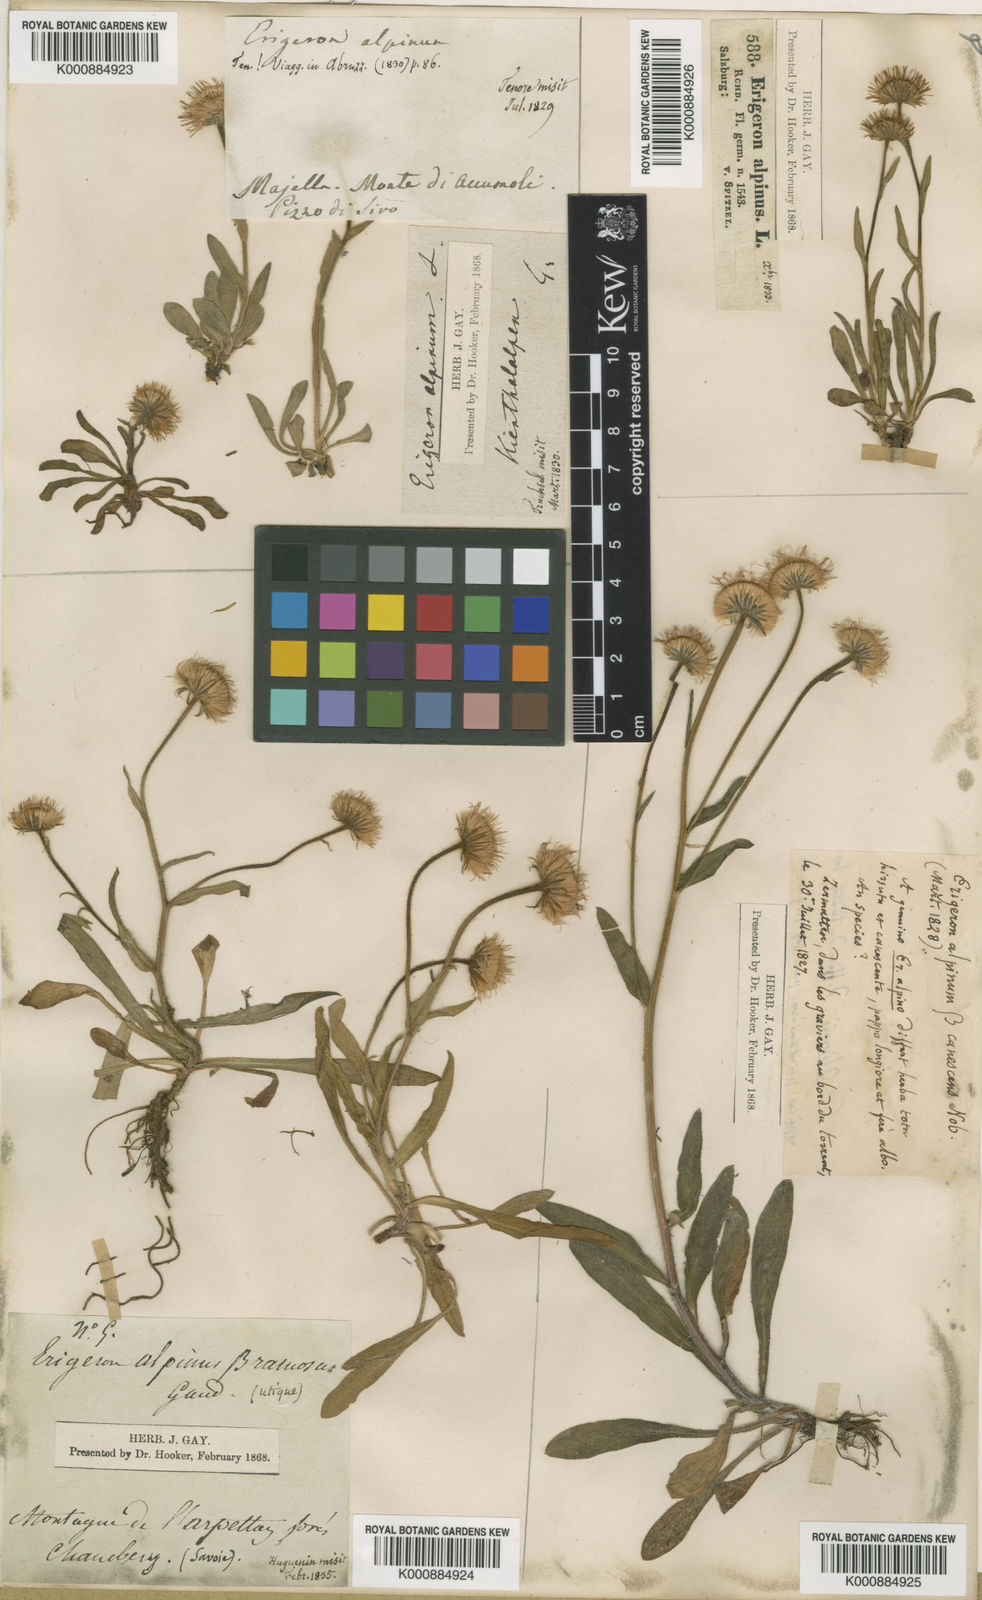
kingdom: Plantae
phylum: Tracheophyta
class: Magnoliopsida
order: Asterales
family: Asteraceae
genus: Erigeron
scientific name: Erigeron alpinus
